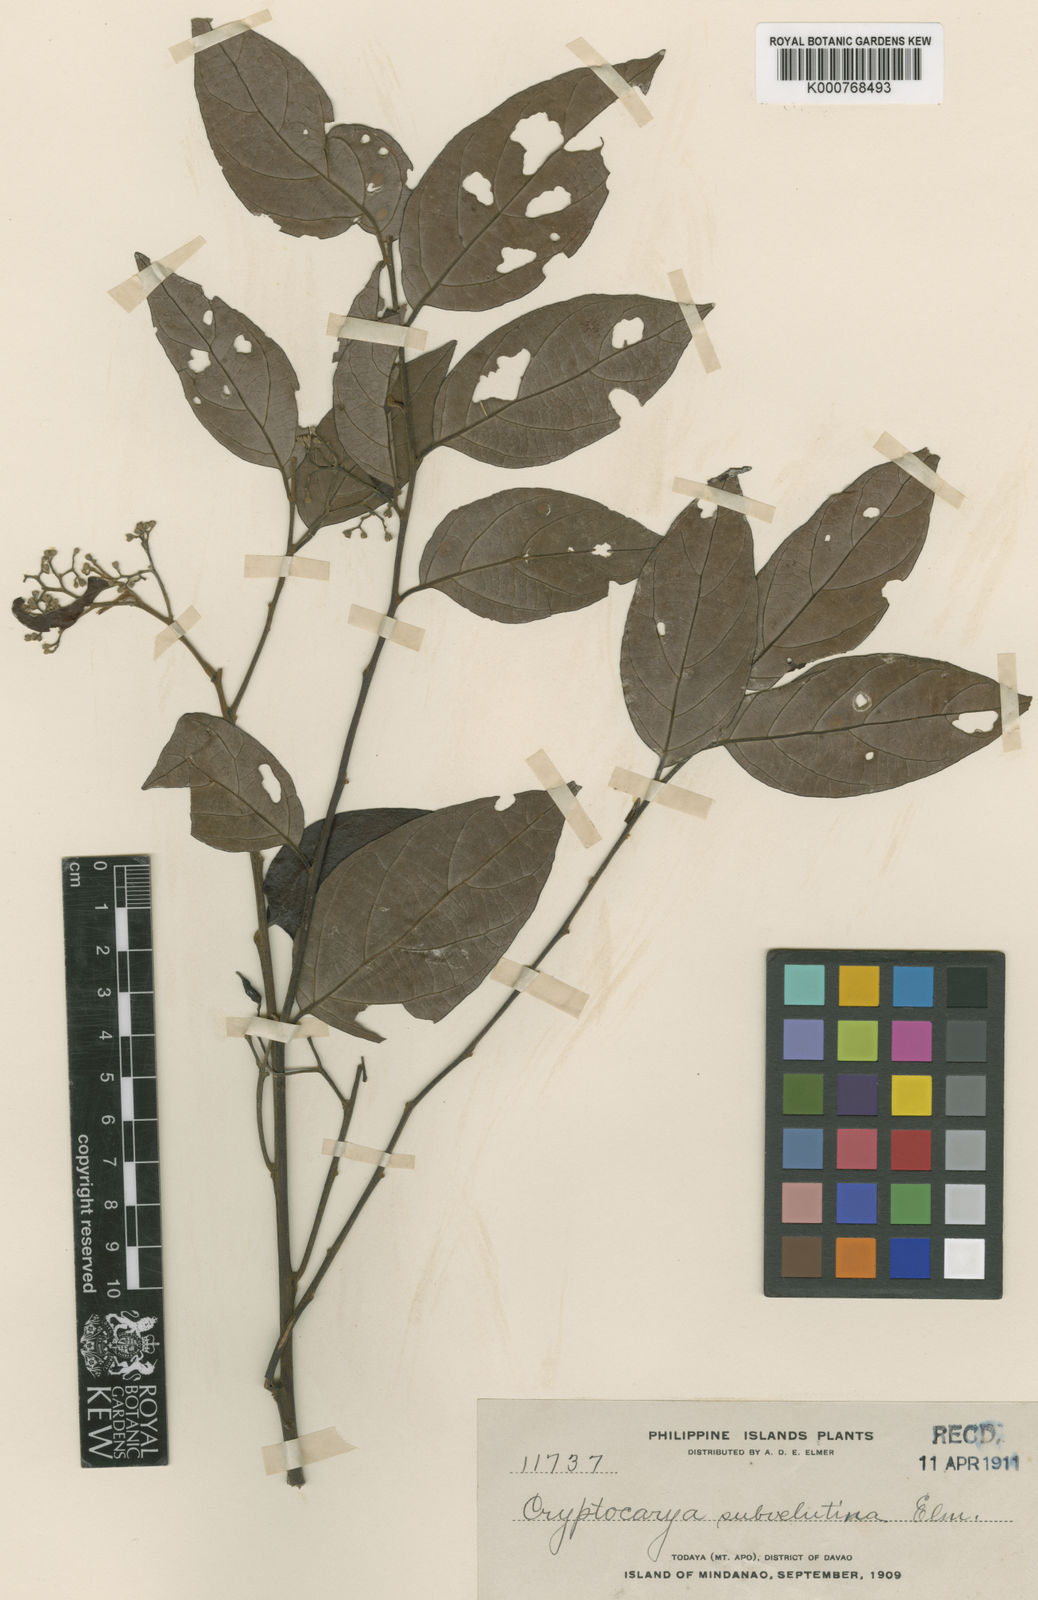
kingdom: Plantae
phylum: Tracheophyta
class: Magnoliopsida
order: Laurales
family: Lauraceae
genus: Cryptocarya
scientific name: Cryptocarya subvelutina
